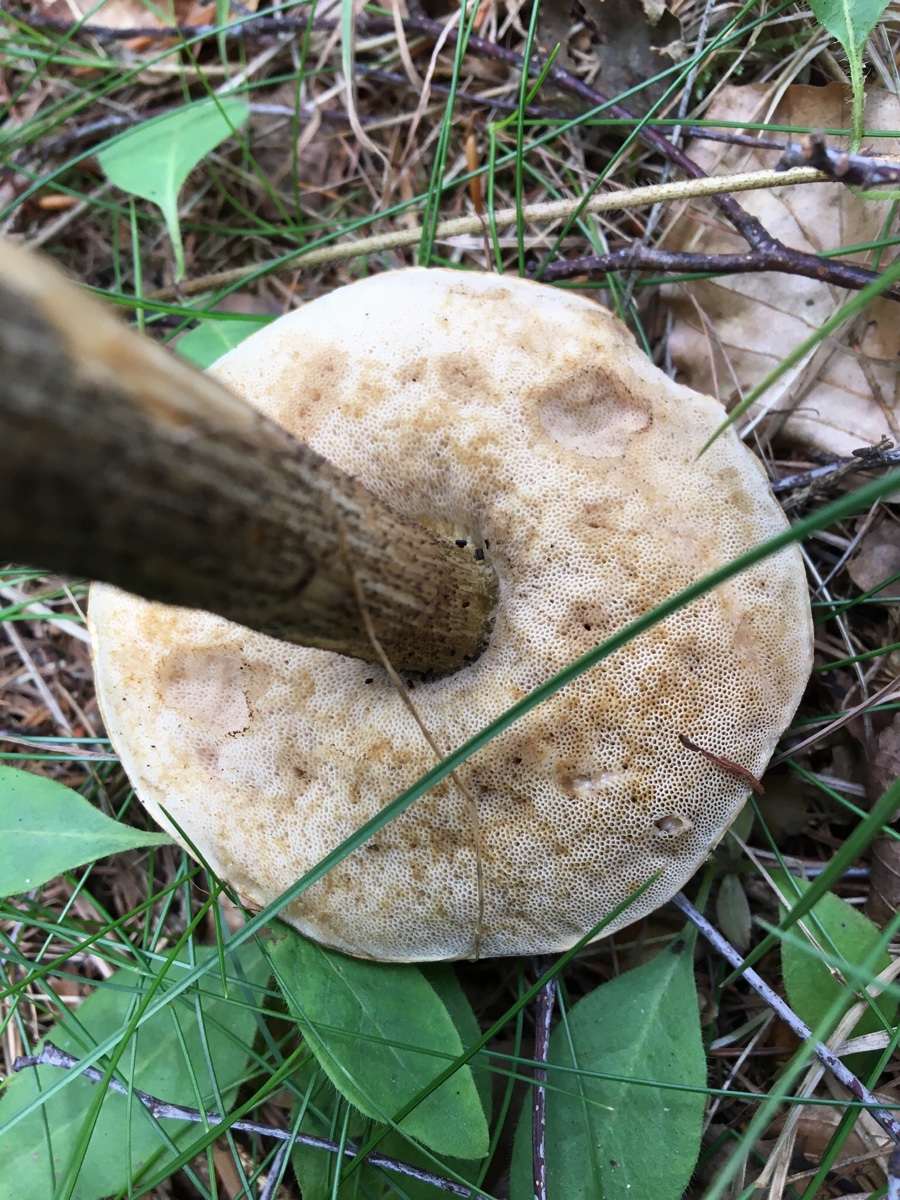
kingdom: Fungi
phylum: Basidiomycota
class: Agaricomycetes
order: Boletales
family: Boletaceae
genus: Leccinum
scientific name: Leccinum scabrum
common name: brun skælrørhat
